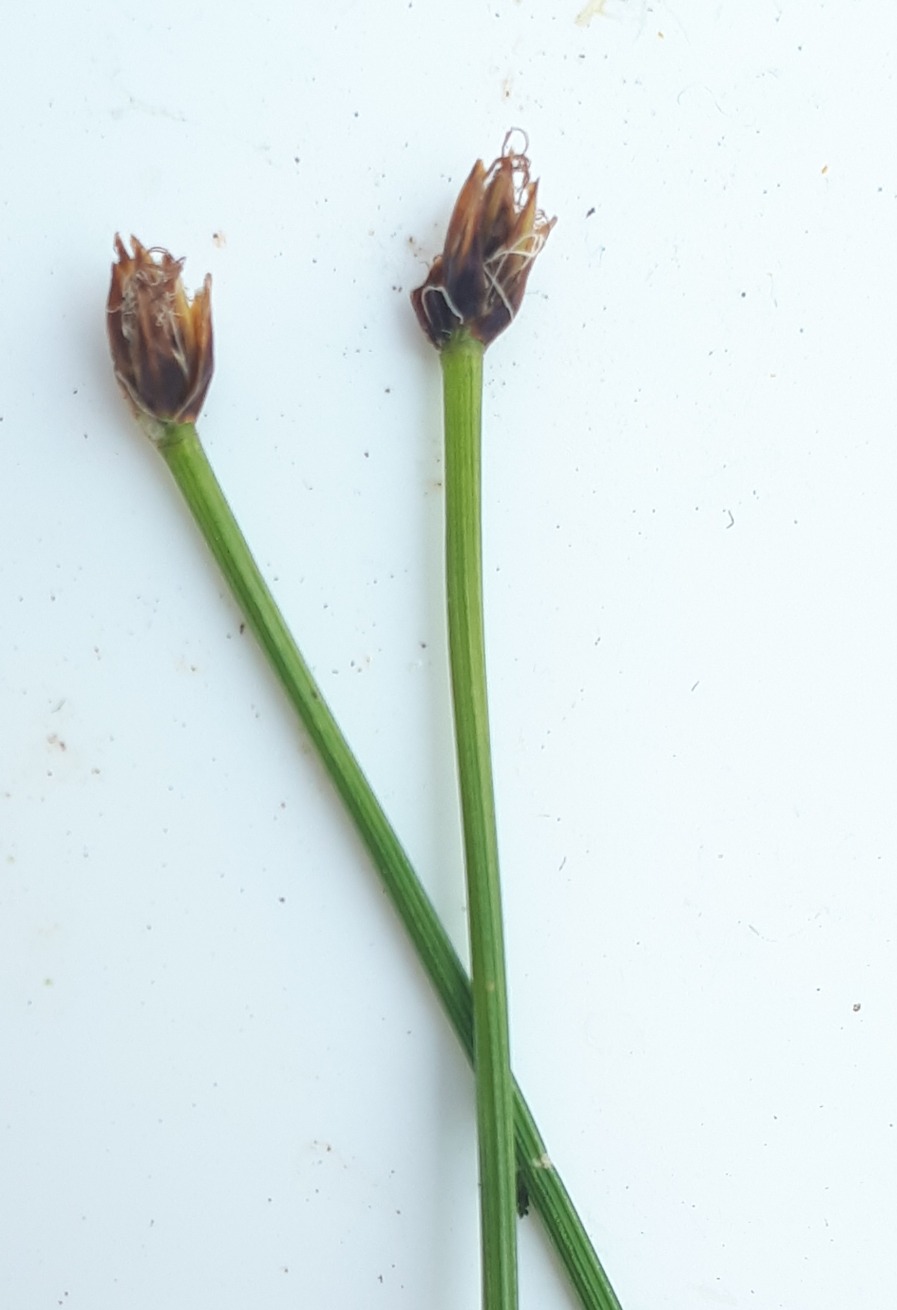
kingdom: Plantae
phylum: Tracheophyta
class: Liliopsida
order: Poales
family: Cyperaceae
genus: Trichophorum
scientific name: Trichophorum cespitosum
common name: Tuekogleaks
